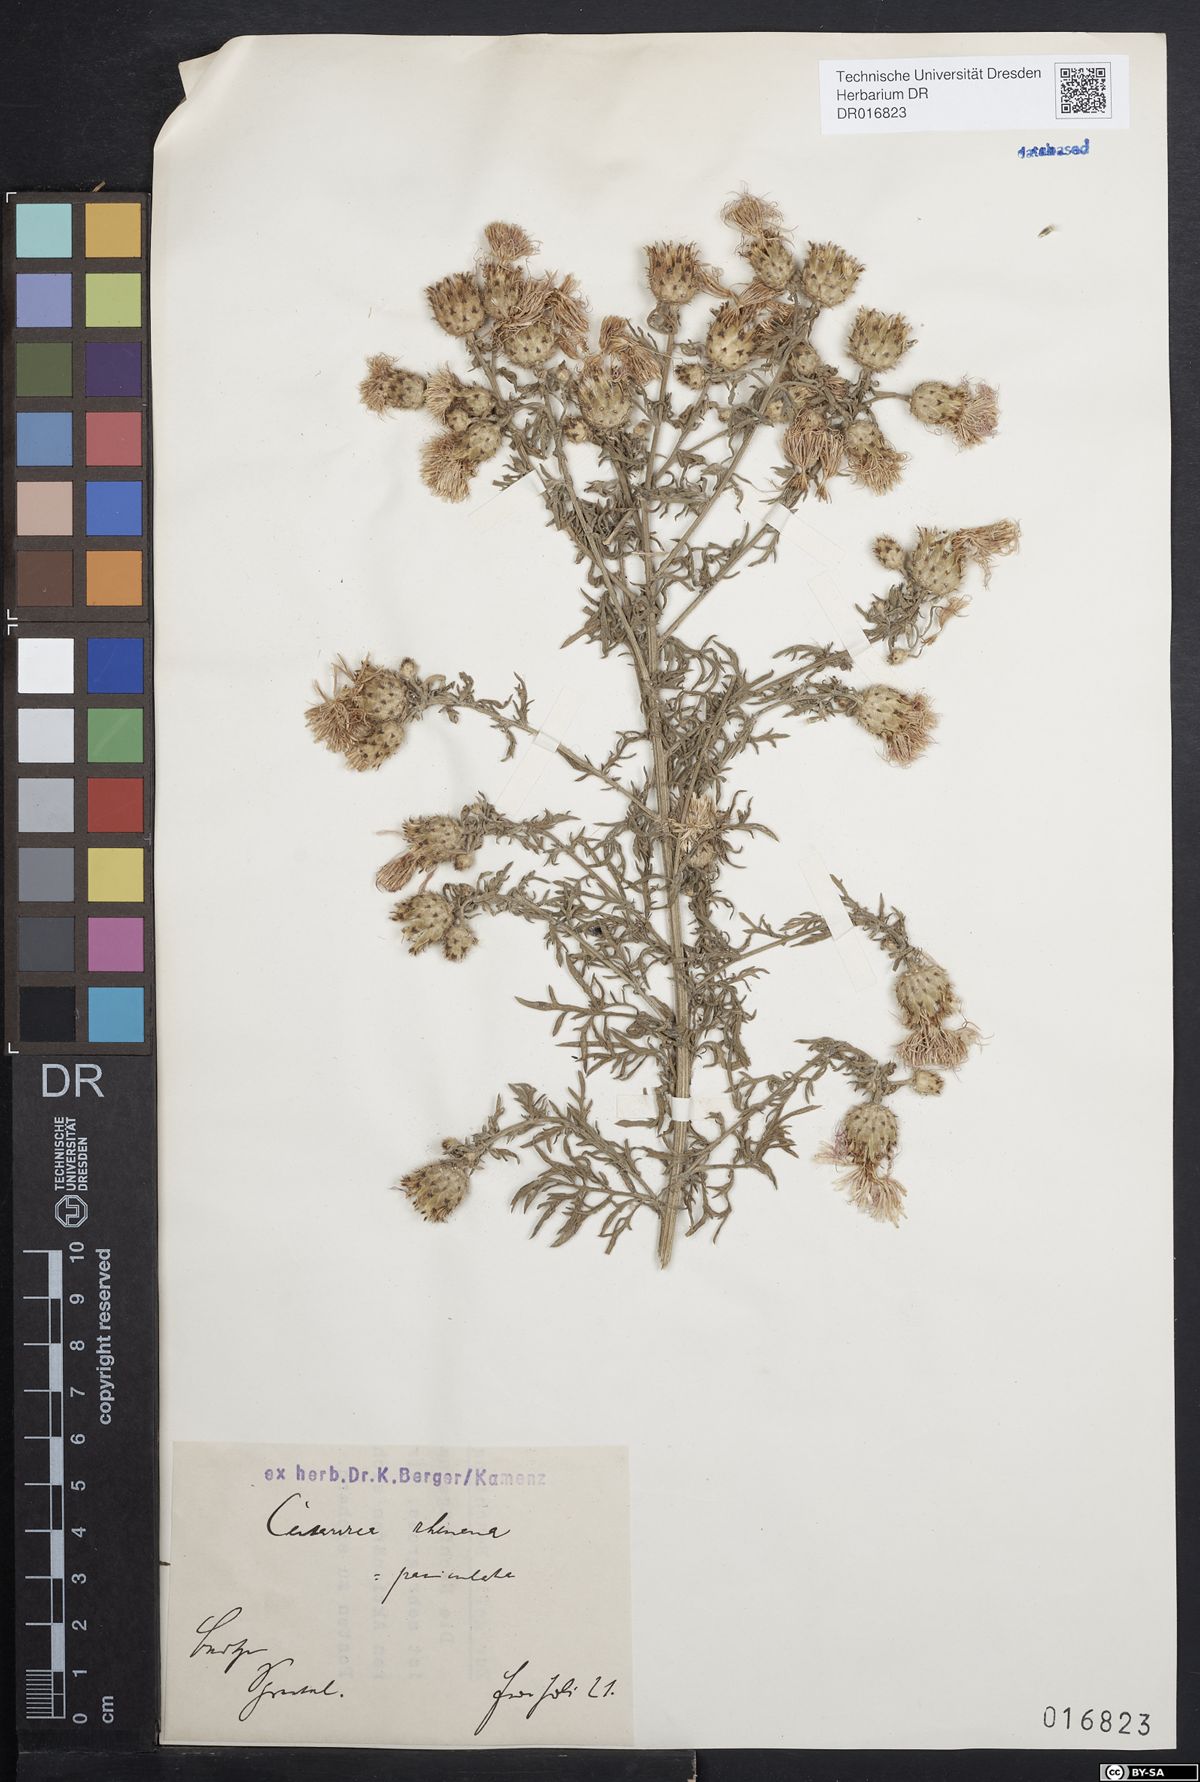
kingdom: Plantae
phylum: Tracheophyta
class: Magnoliopsida
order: Asterales
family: Asteraceae
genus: Centaurea
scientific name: Centaurea stoebe
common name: Spotted knapweed
